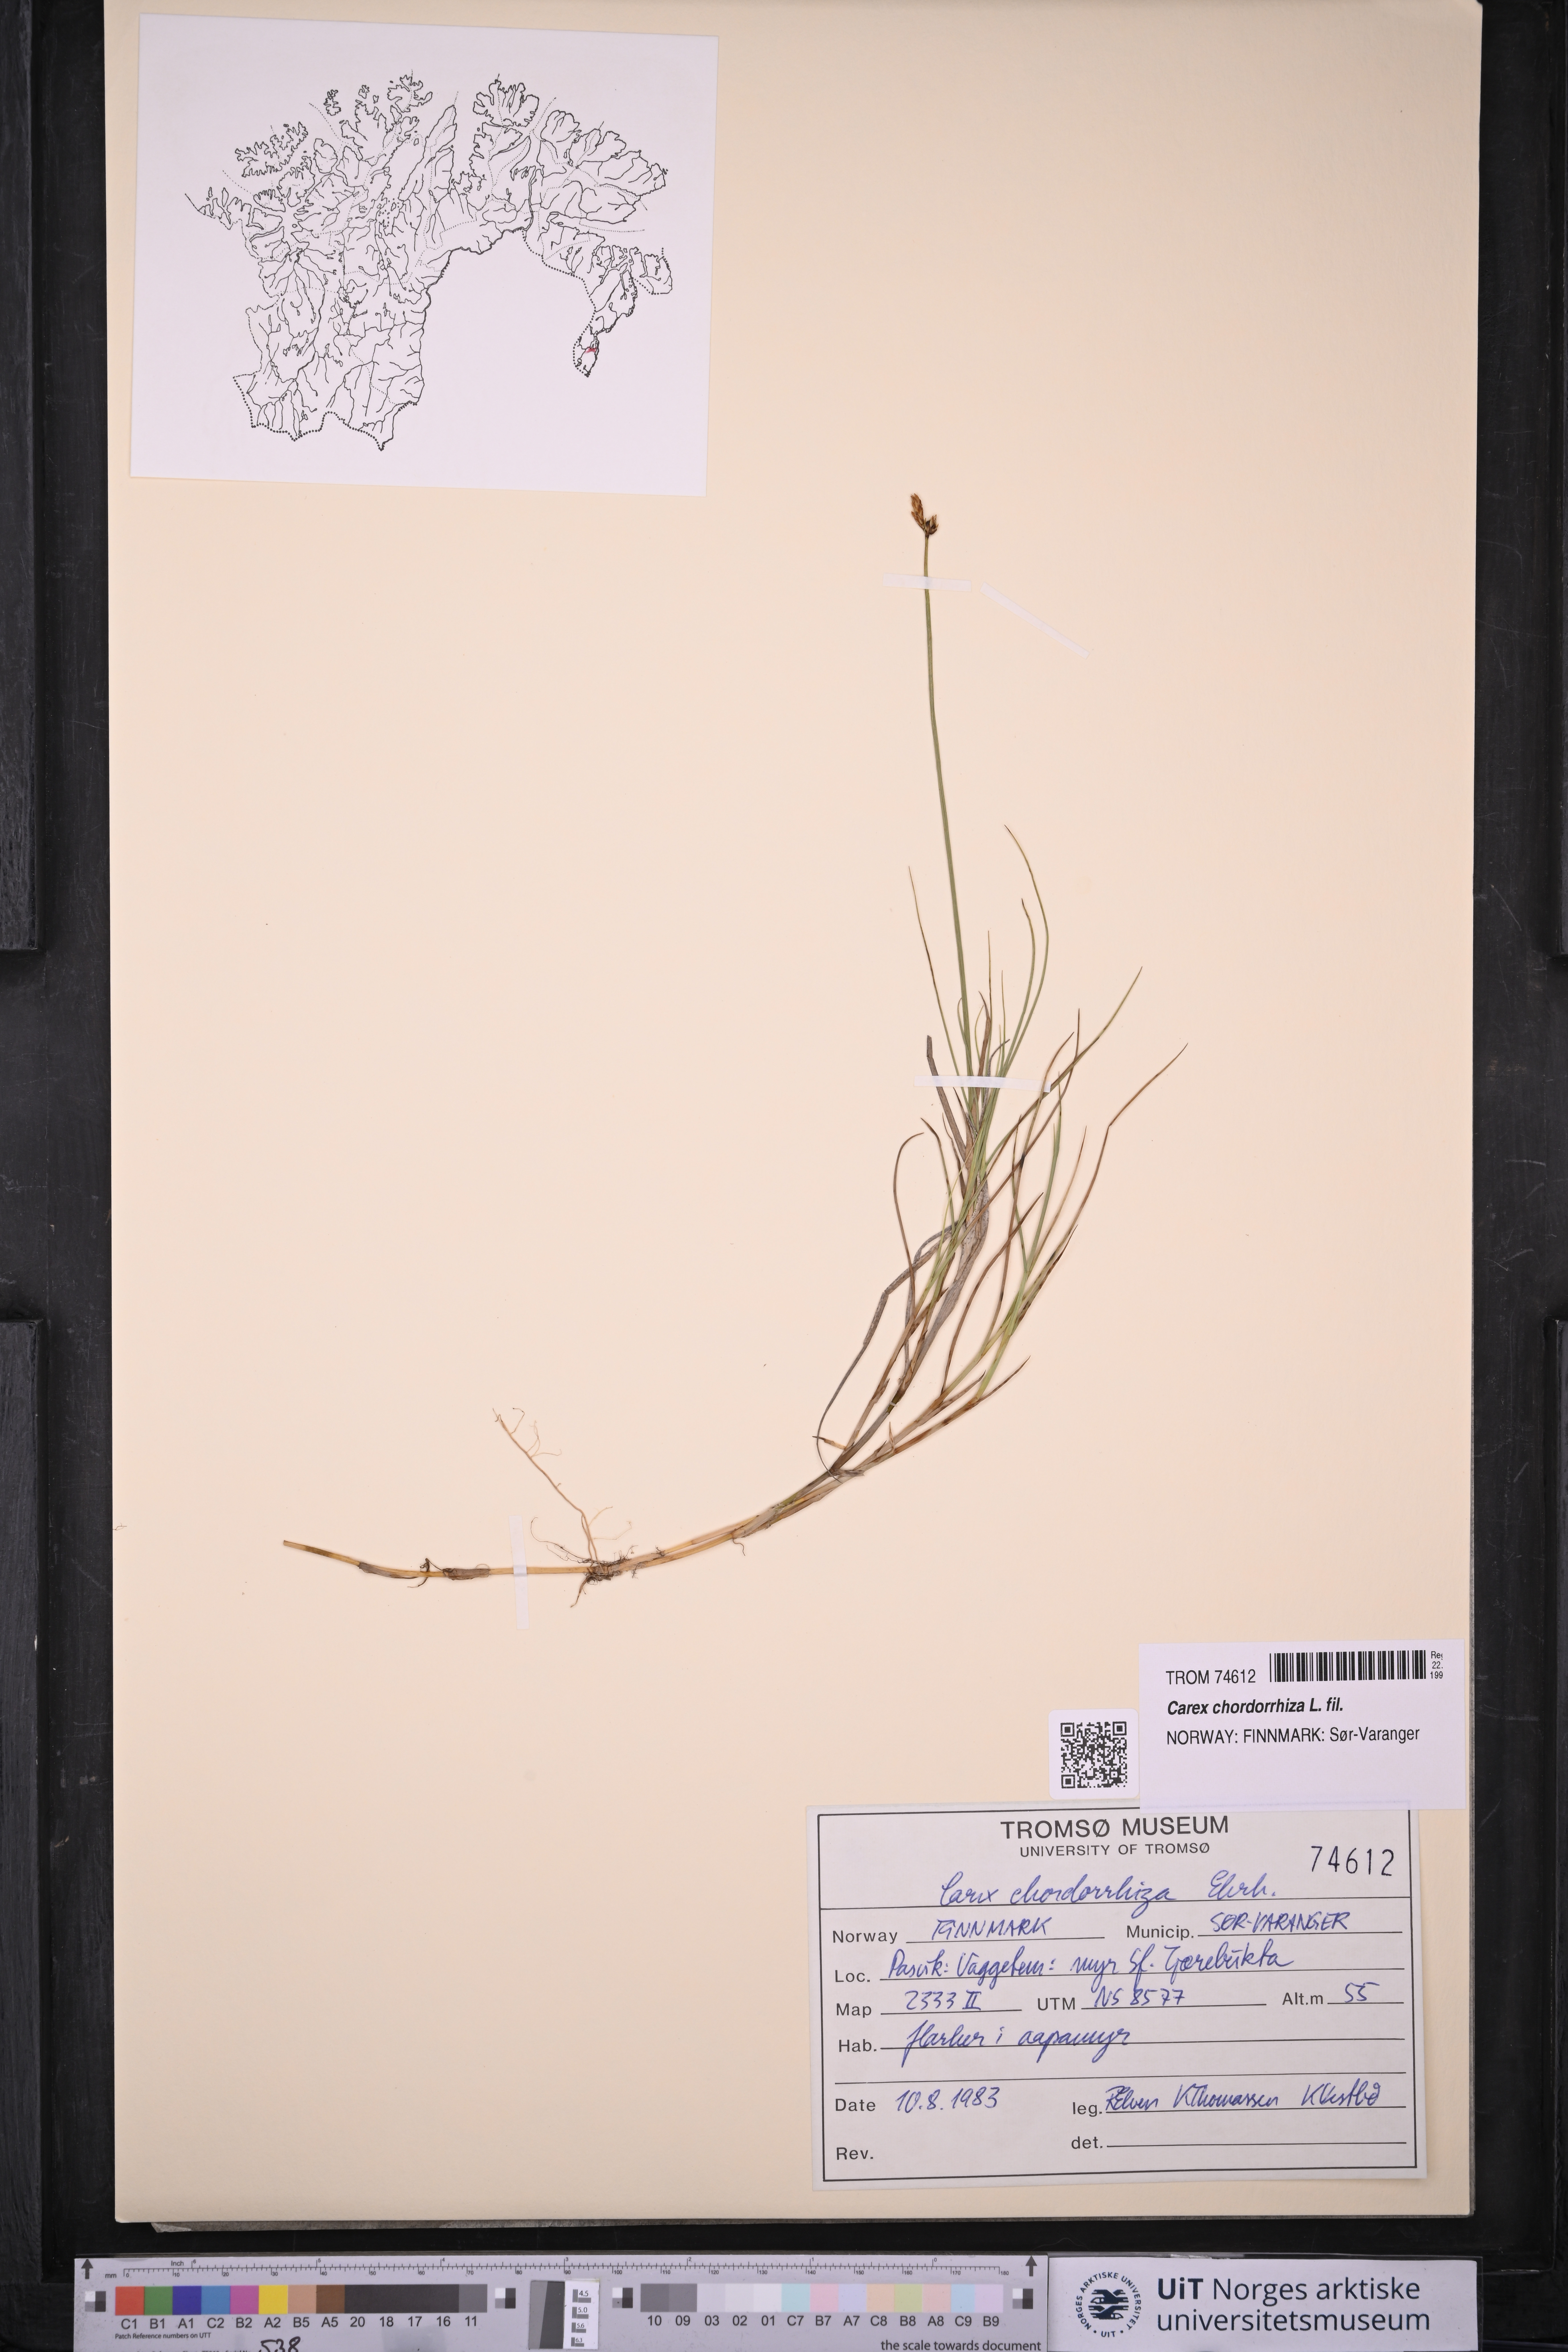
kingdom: Plantae
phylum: Tracheophyta
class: Liliopsida
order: Poales
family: Cyperaceae
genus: Carex
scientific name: Carex chordorrhiza
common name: String sedge
